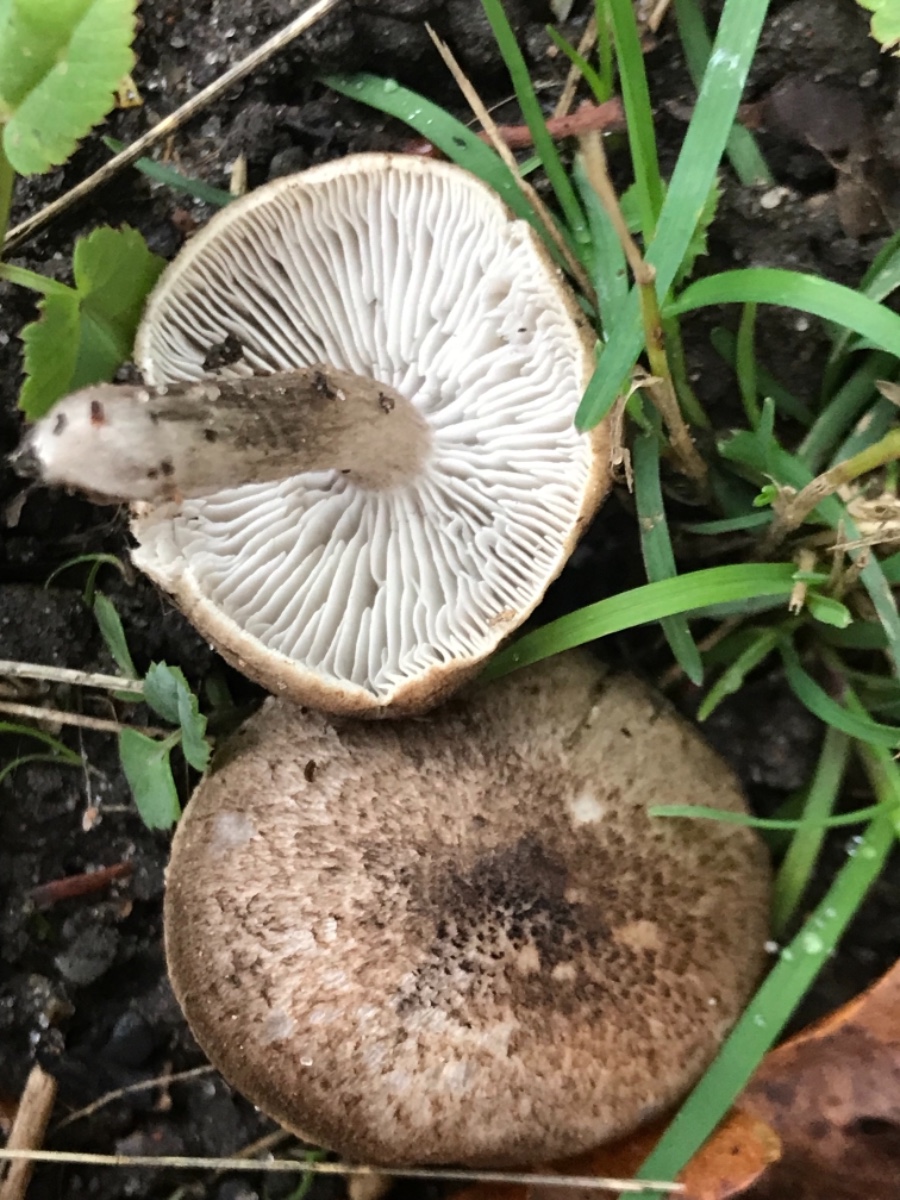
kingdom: Fungi
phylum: Basidiomycota
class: Agaricomycetes
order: Agaricales
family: Tricholomataceae
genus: Tricholoma
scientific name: Tricholoma scalpturatum
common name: gulplettet ridderhat
